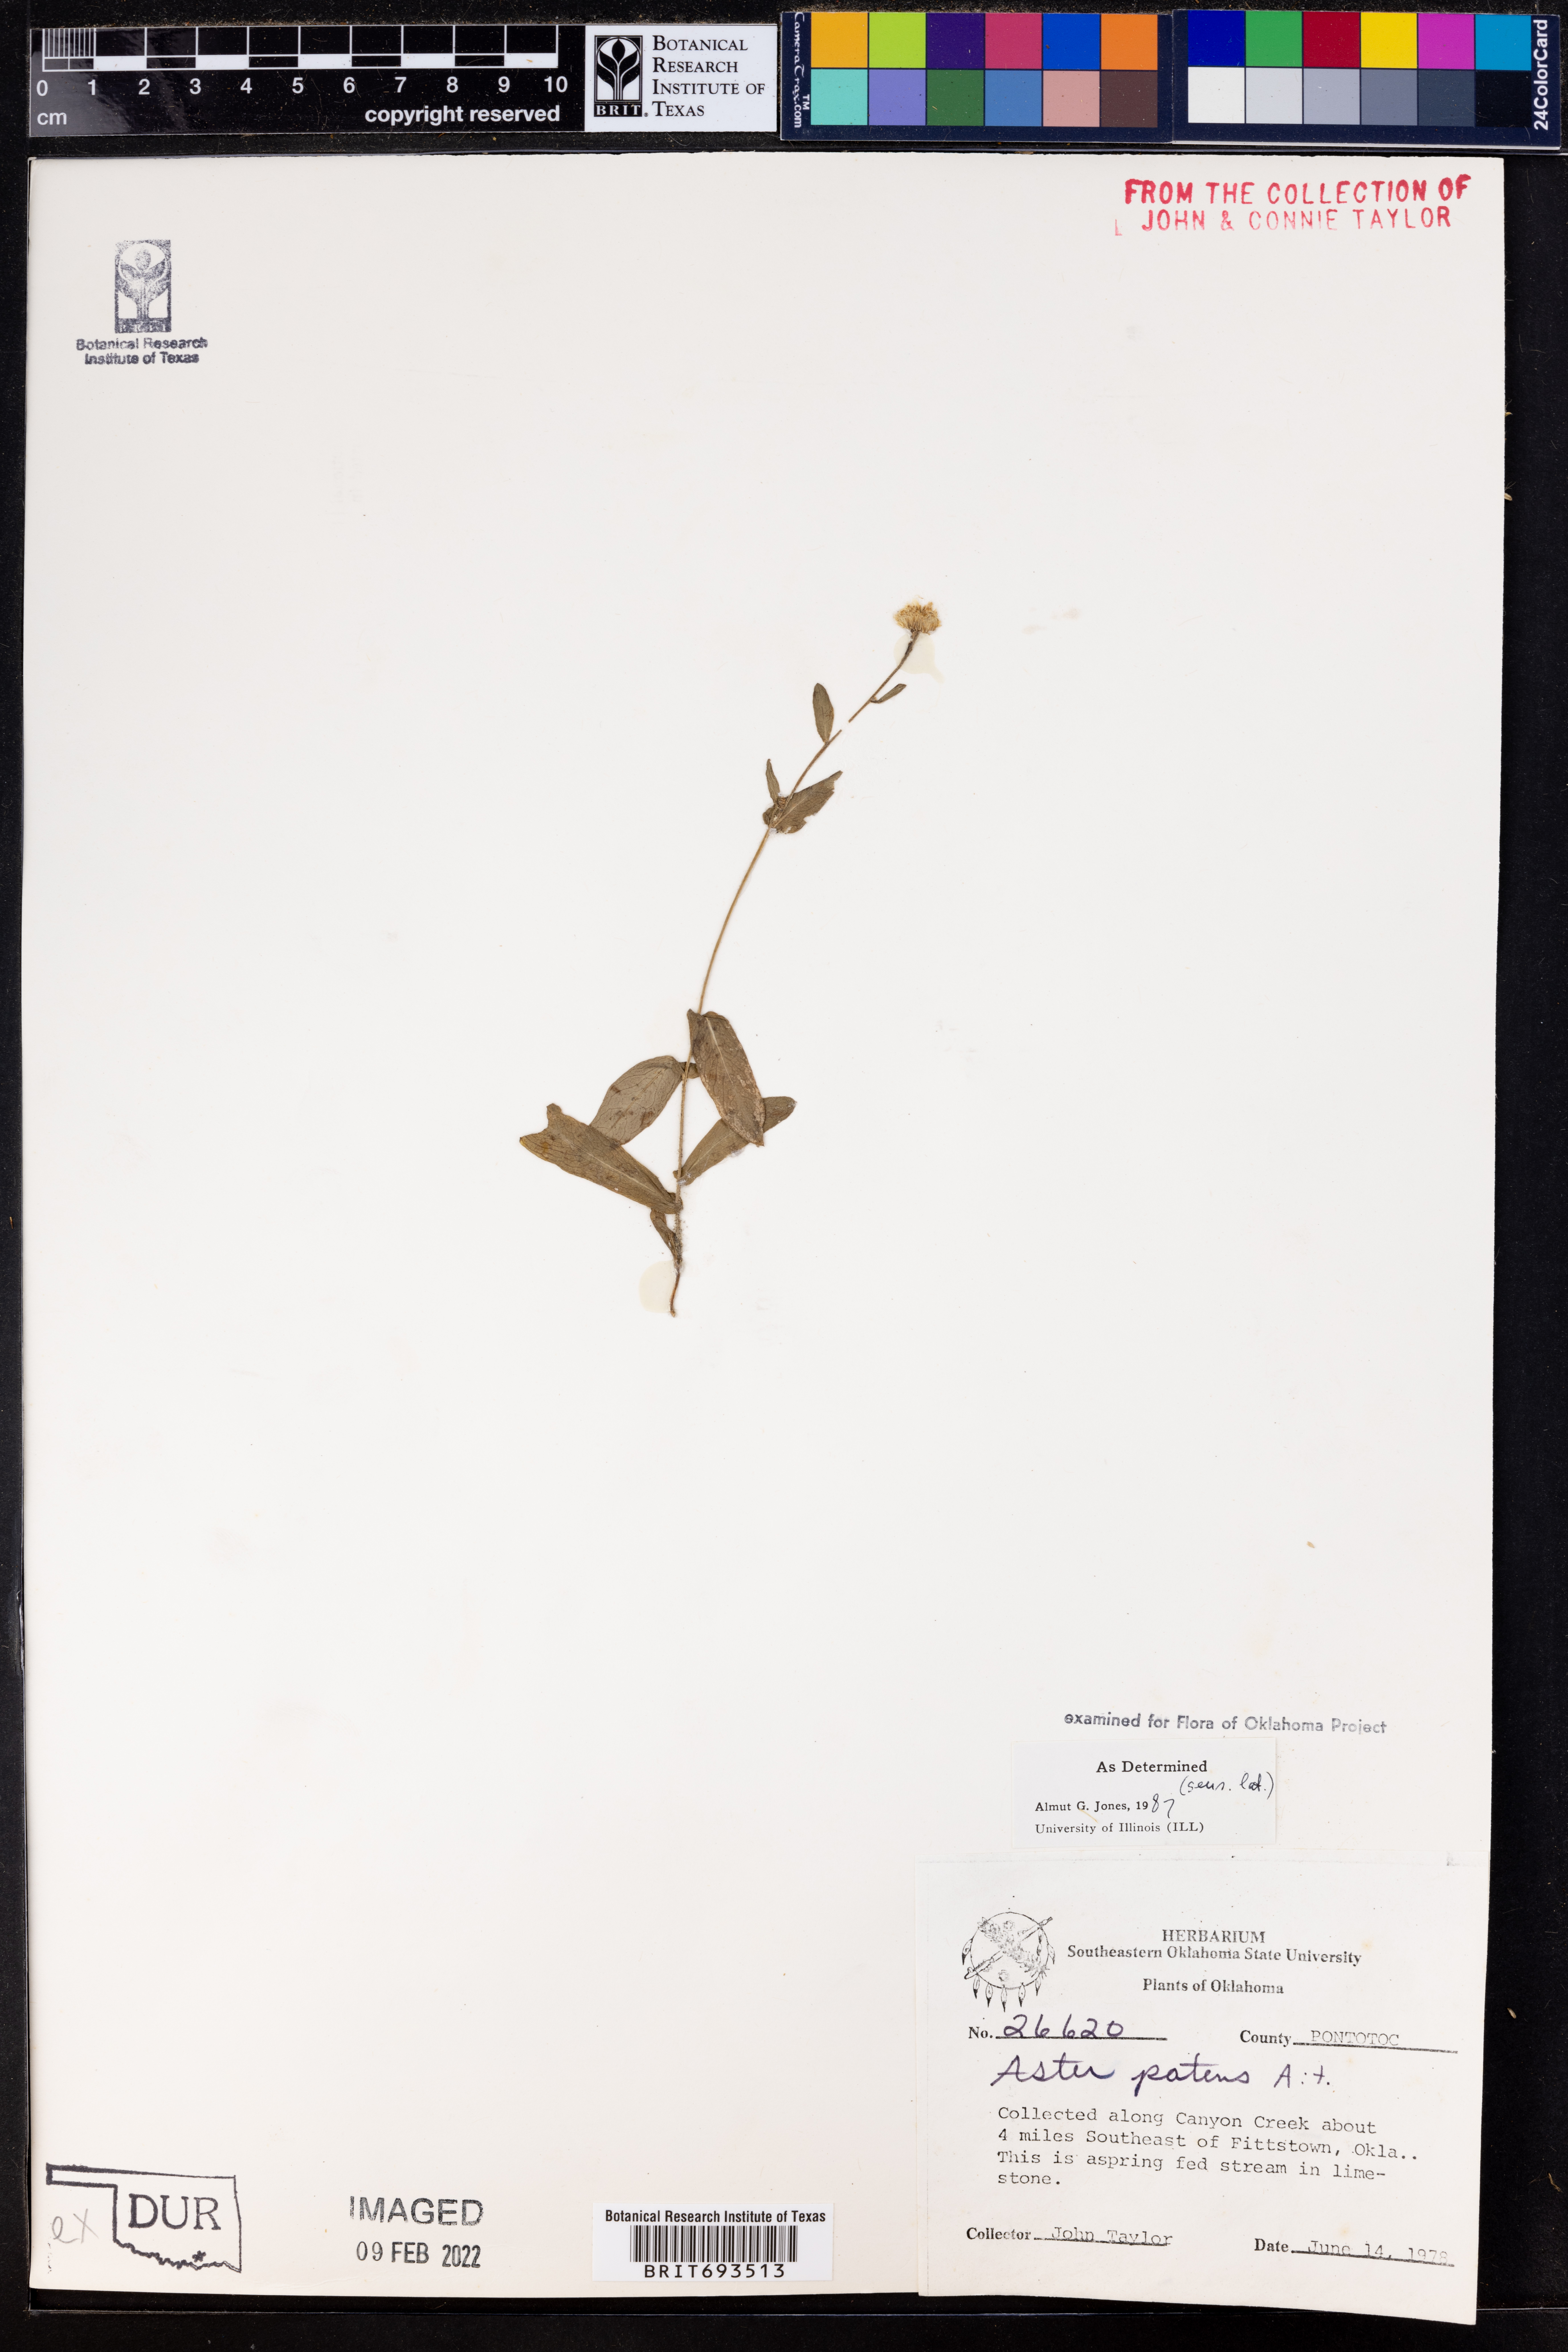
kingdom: Plantae
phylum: Tracheophyta
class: Magnoliopsida
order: Asterales
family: Asteraceae
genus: Symphyotrichum
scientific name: Symphyotrichum patens
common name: Late purple aster
